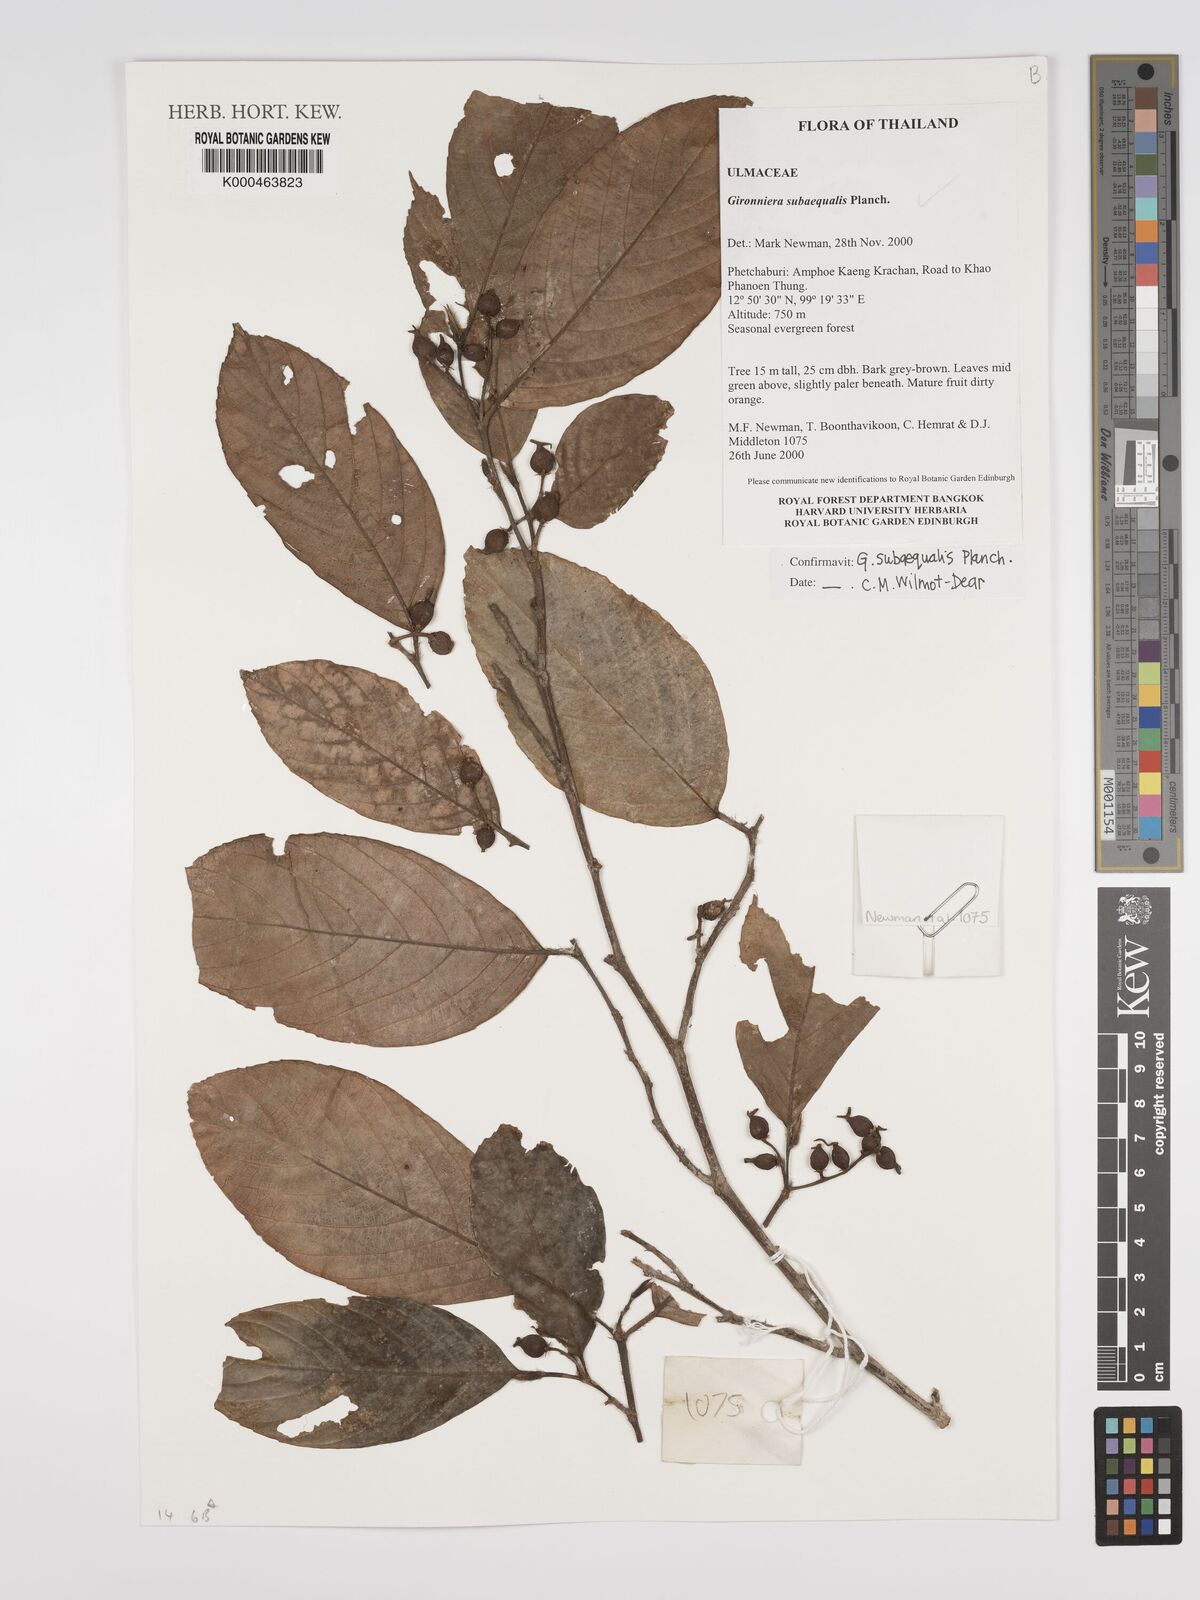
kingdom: Plantae
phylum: Tracheophyta
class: Magnoliopsida
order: Rosales
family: Cannabaceae
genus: Gironniera
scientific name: Gironniera subaequalis
